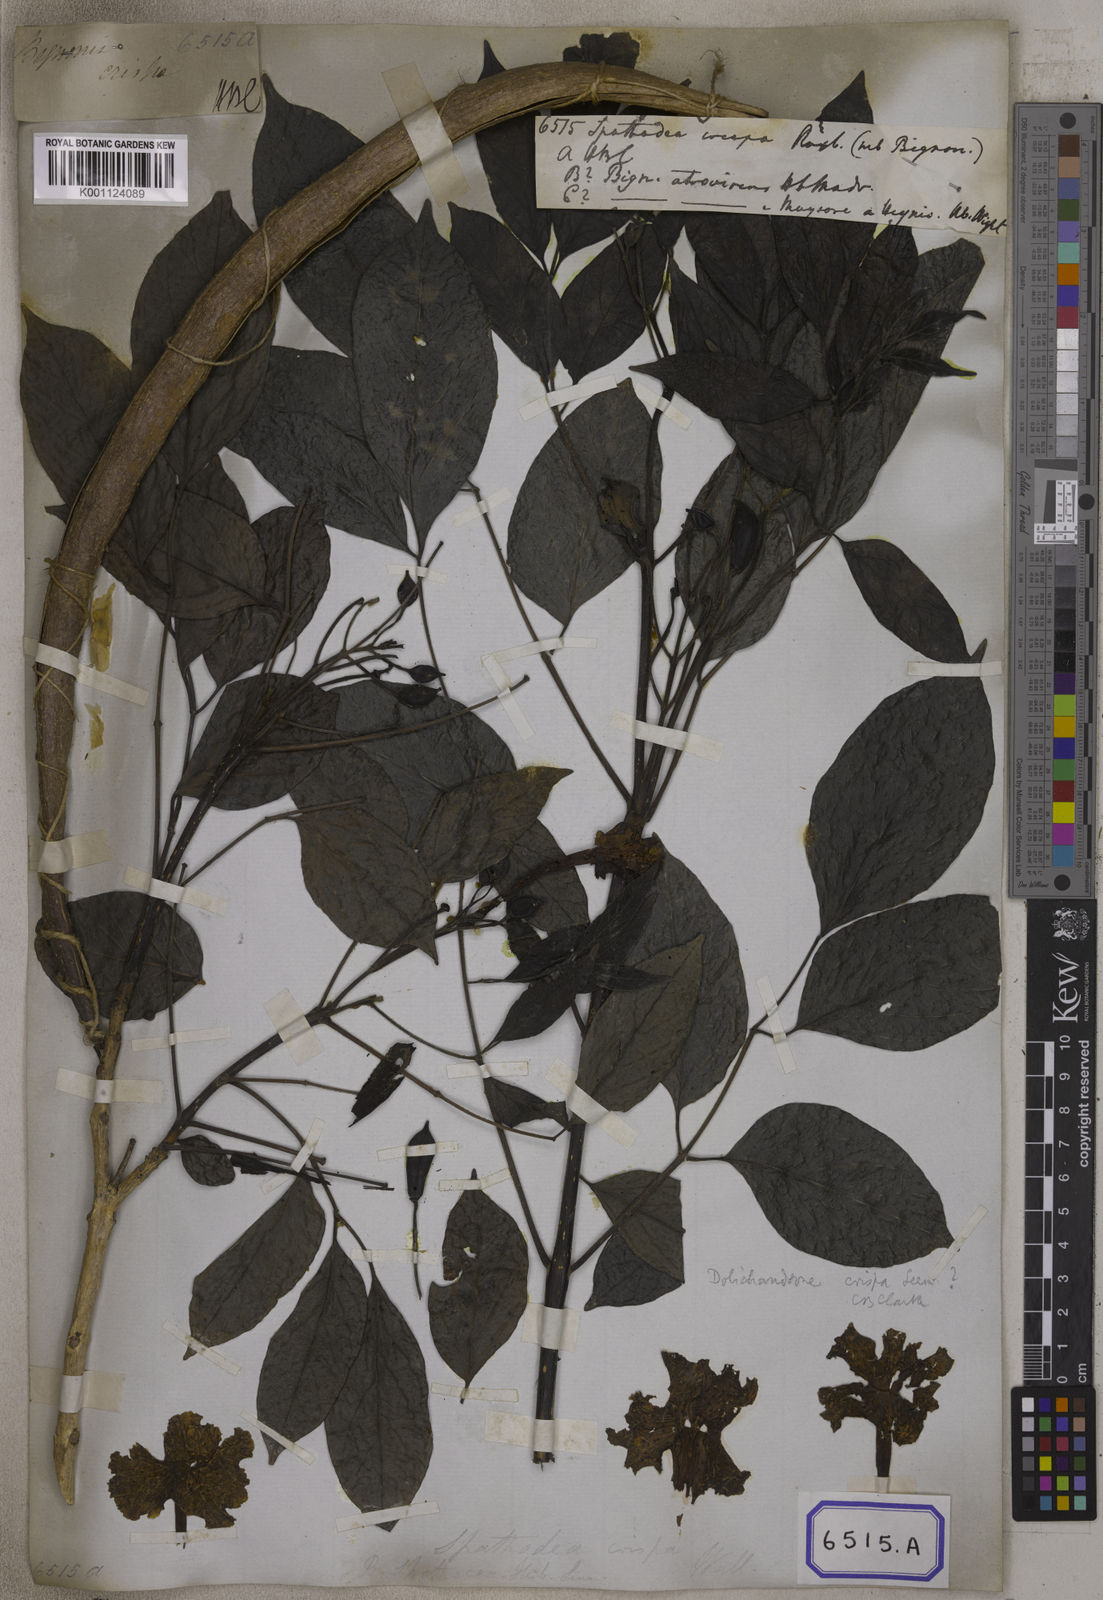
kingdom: Plantae
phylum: Tracheophyta
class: Magnoliopsida
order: Lamiales
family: Bignoniaceae
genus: Dolichandrone
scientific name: Dolichandrone atrovirens
